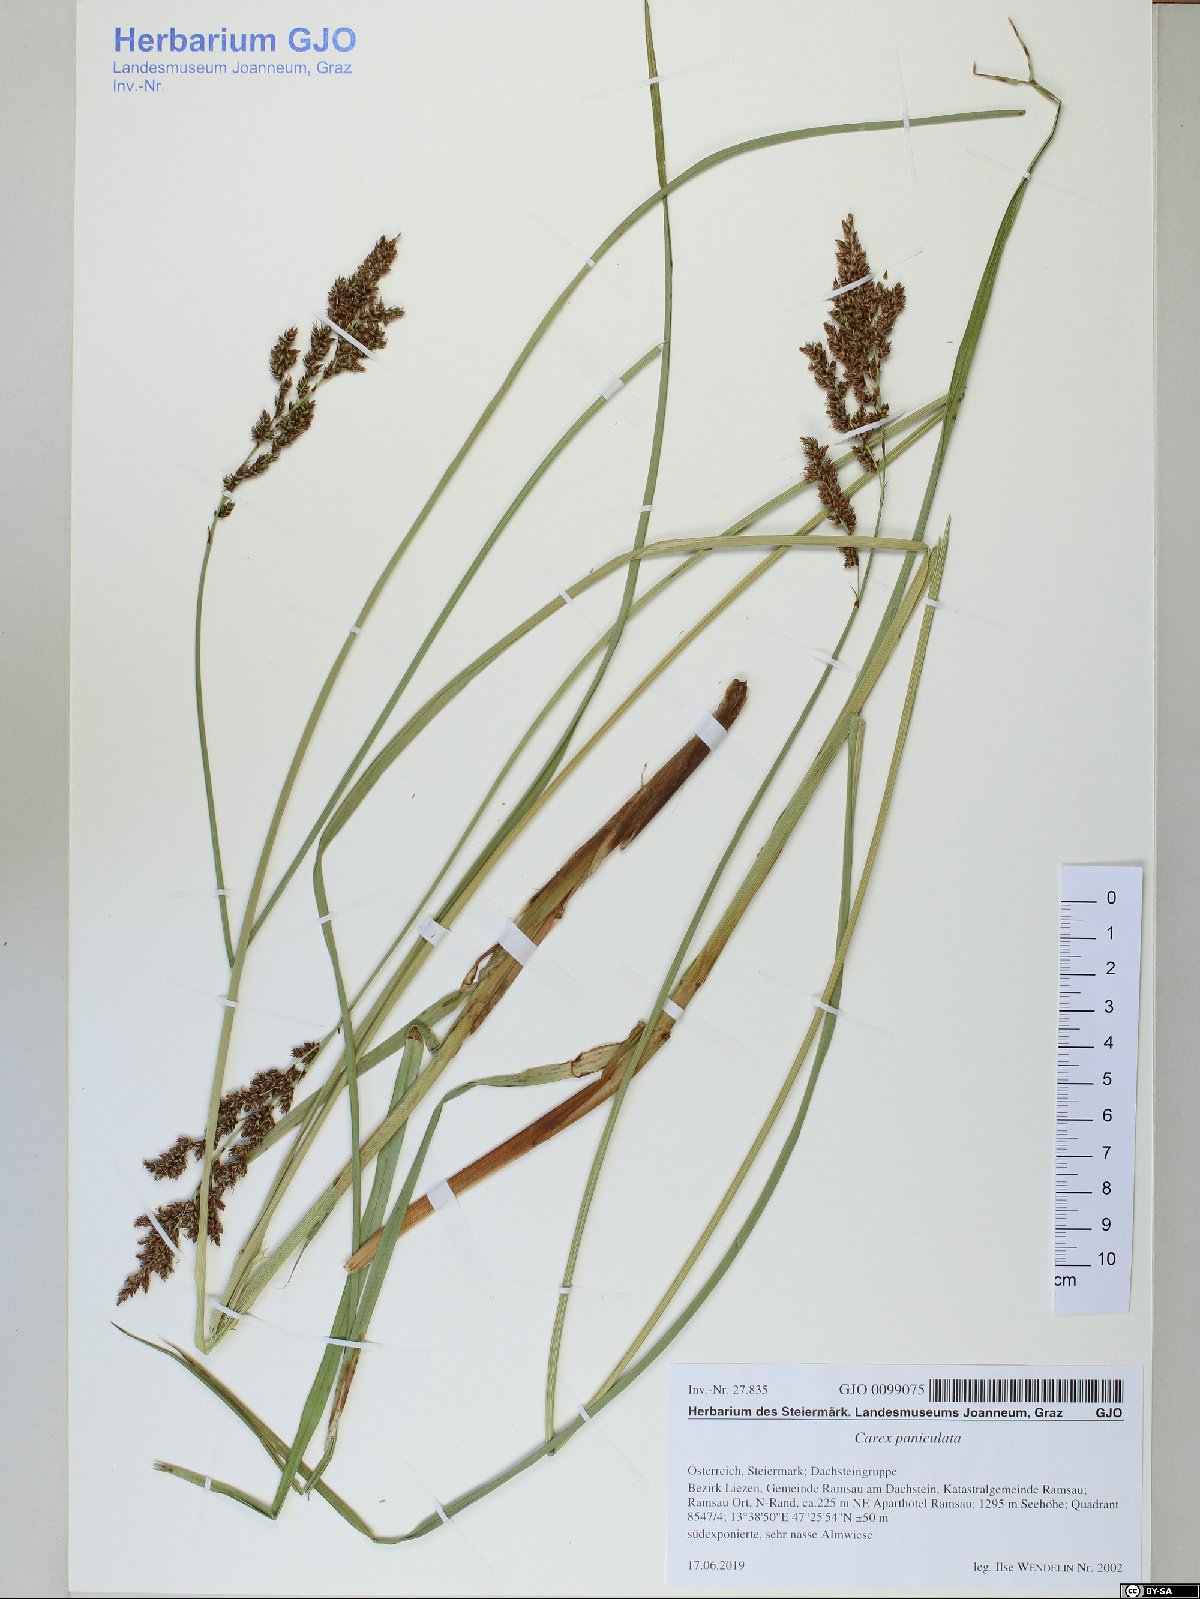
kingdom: Plantae
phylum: Tracheophyta
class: Liliopsida
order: Poales
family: Cyperaceae
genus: Carex
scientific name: Carex paniculata
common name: Greater tussock-sedge
